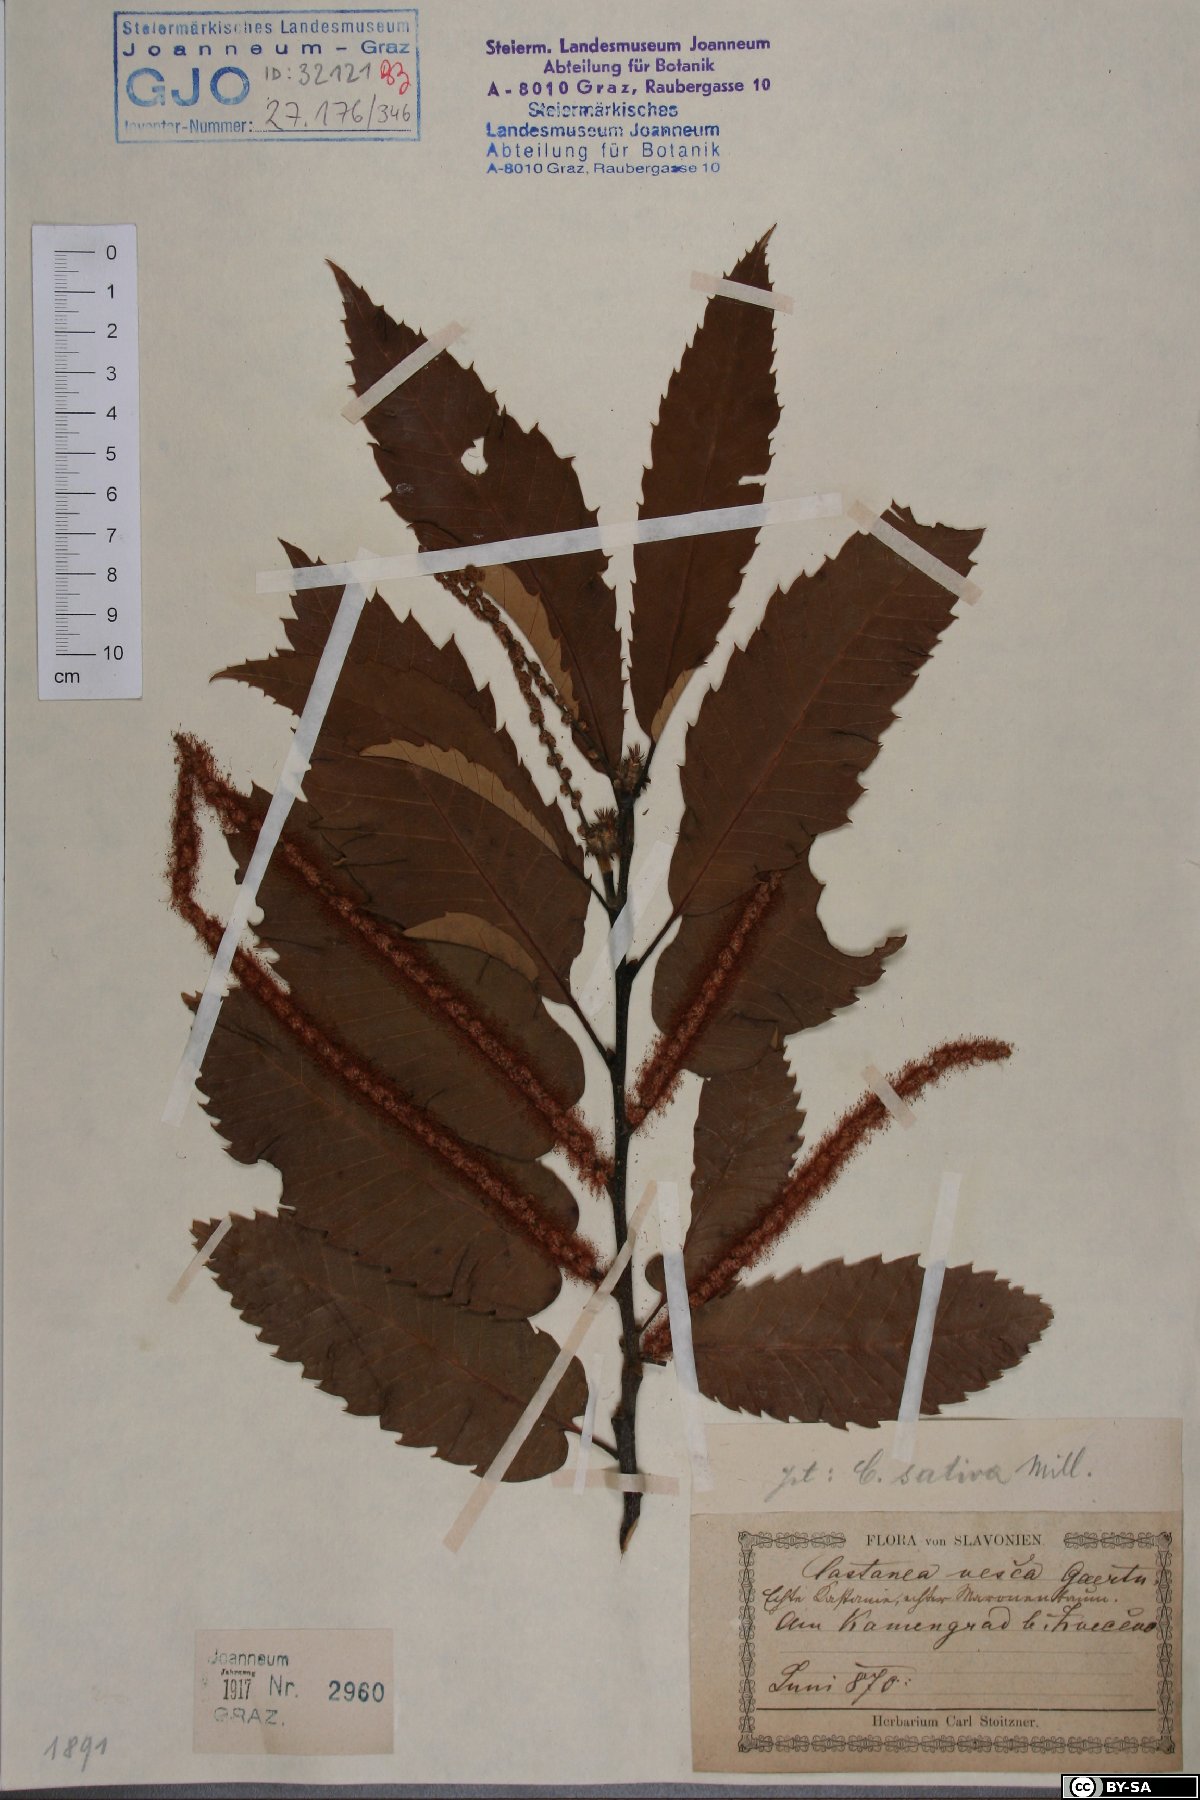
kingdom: Plantae
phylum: Tracheophyta
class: Magnoliopsida
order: Fagales
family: Fagaceae
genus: Castanea
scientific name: Castanea sativa
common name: Sweet chestnut
